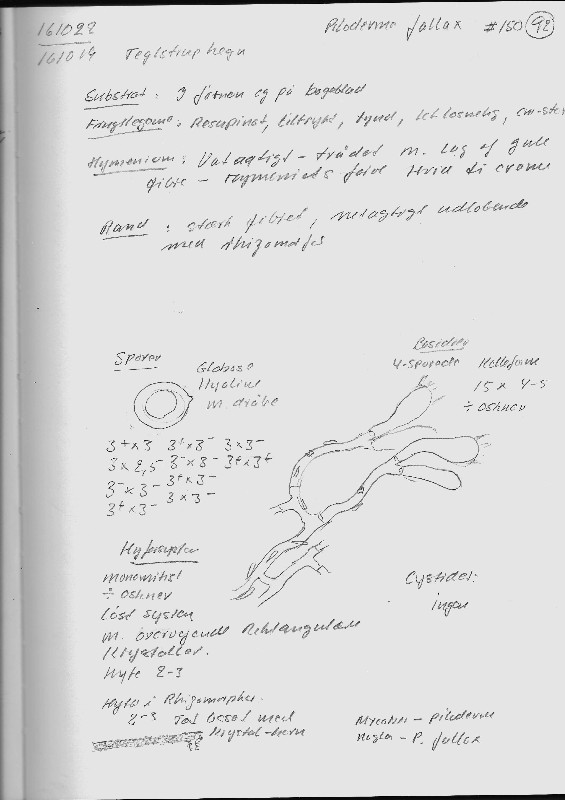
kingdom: Fungi
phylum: Basidiomycota
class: Agaricomycetes
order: Atheliales
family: Atheliaceae
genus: Piloderma
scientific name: Piloderma bicolor
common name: gul førnehinde
